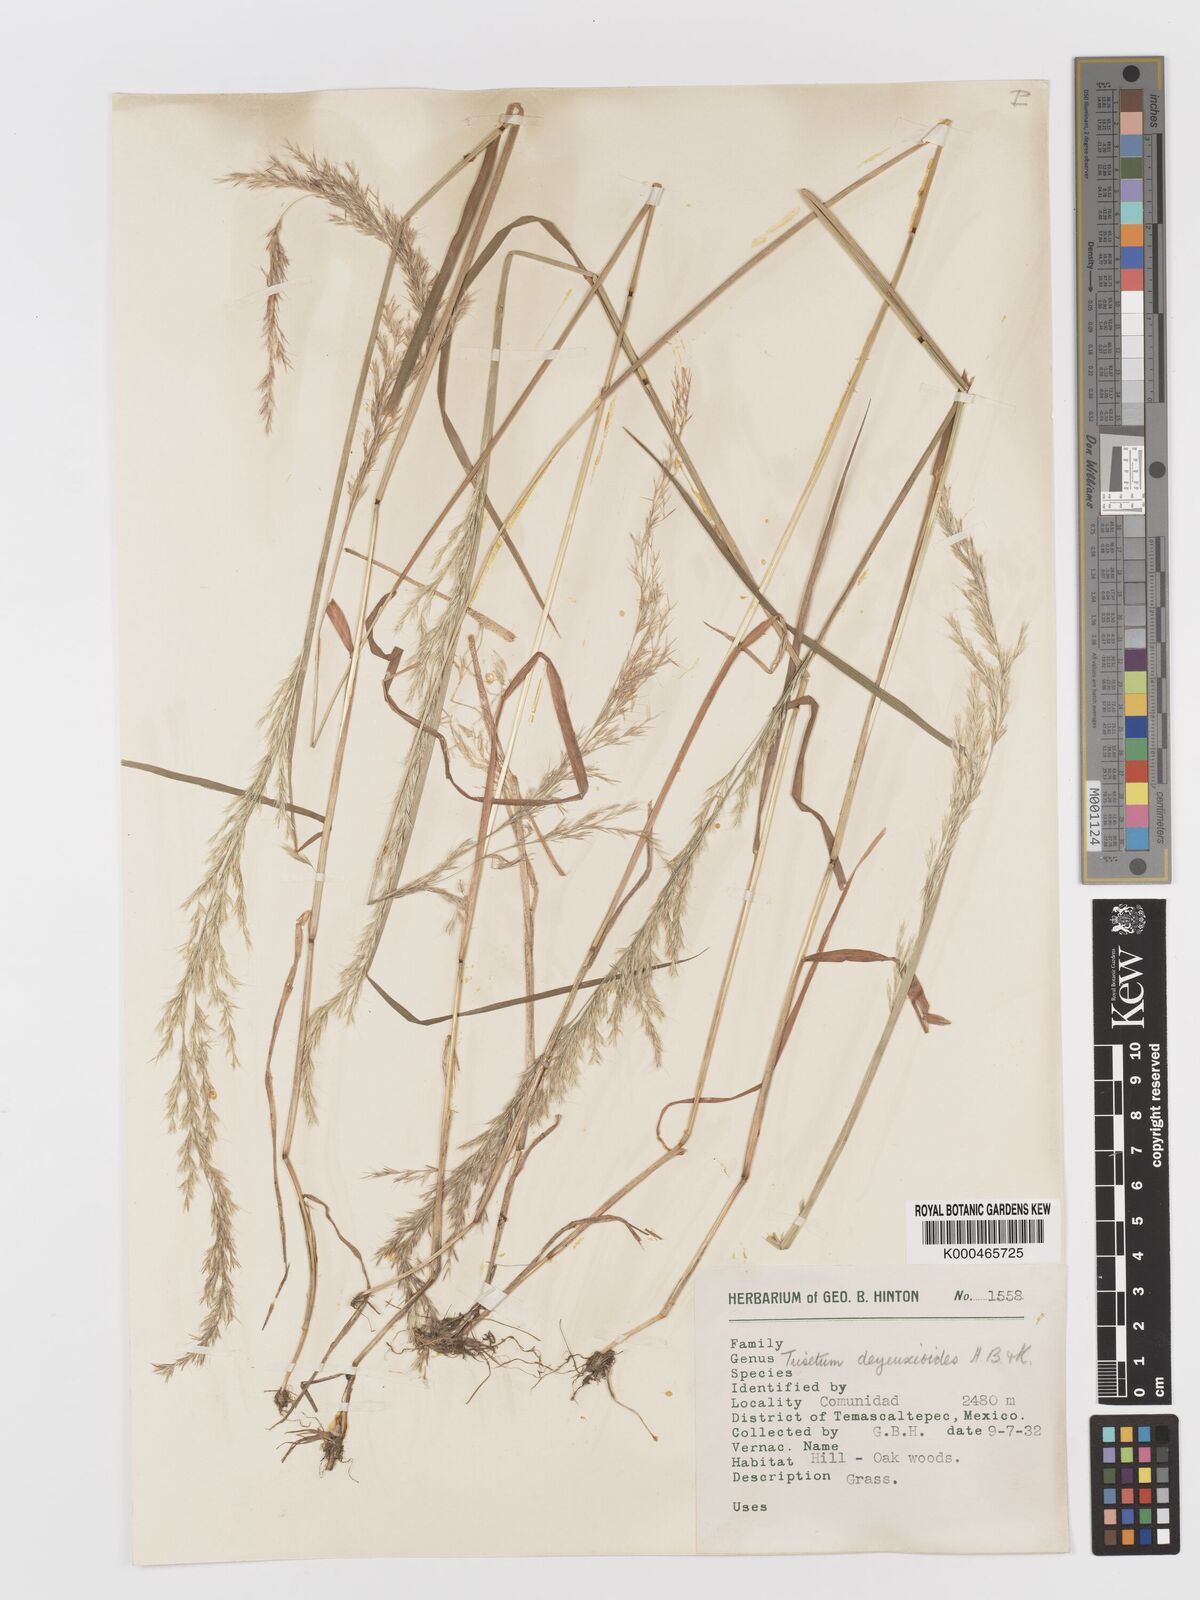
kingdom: Plantae
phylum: Tracheophyta
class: Liliopsida
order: Poales
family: Poaceae
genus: Peyritschia
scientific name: Peyritschia deyeuxioides
